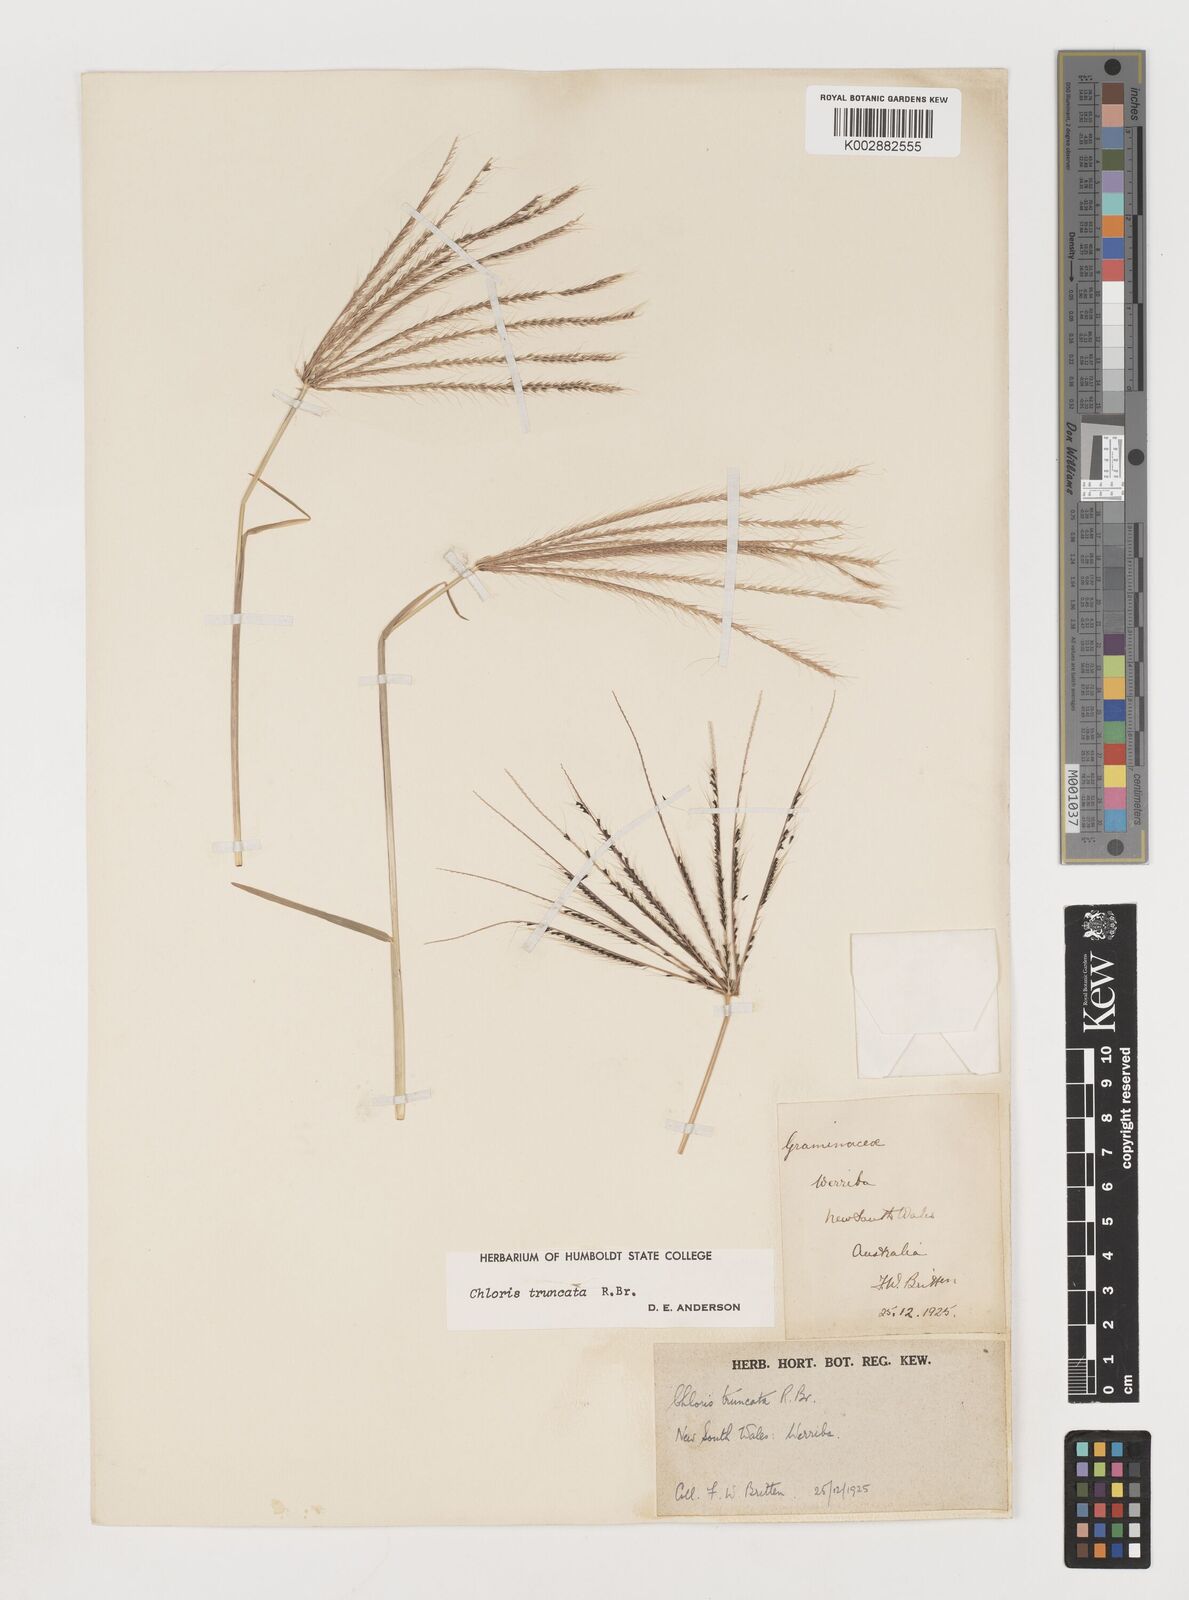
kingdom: Plantae
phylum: Tracheophyta
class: Liliopsida
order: Poales
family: Poaceae
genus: Chloris
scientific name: Chloris truncata
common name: Windmill-grass
